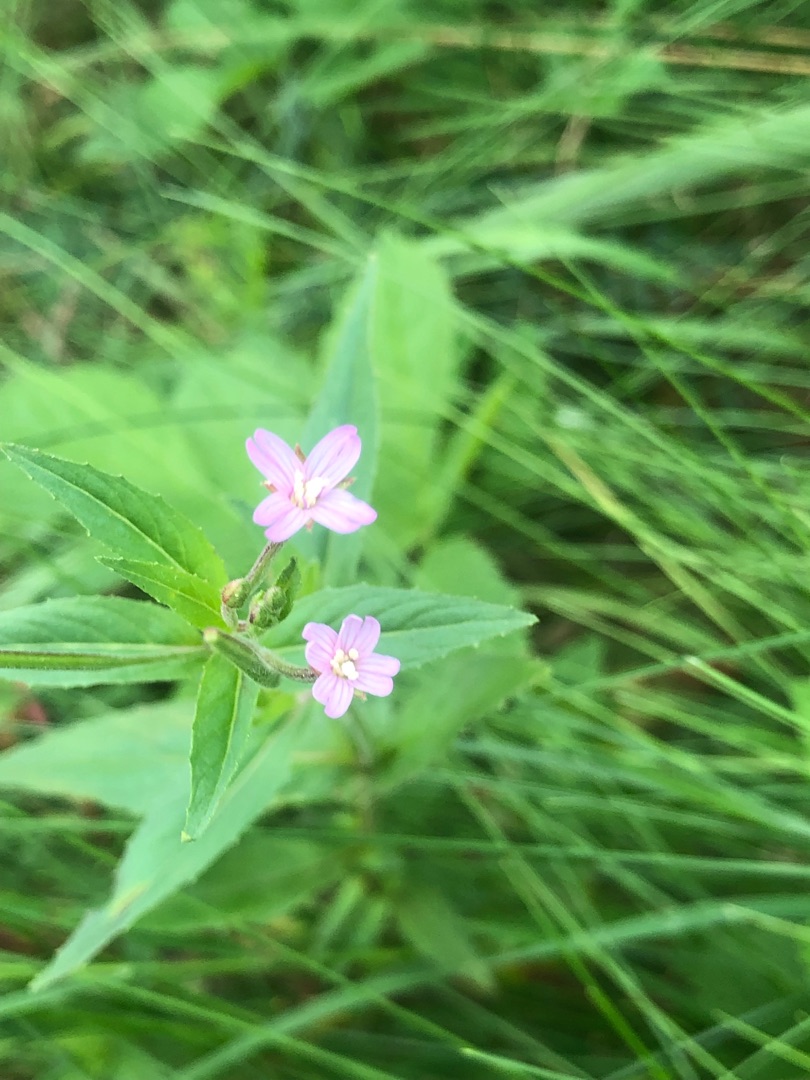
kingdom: Plantae
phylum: Tracheophyta
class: Magnoliopsida
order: Myrtales
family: Onagraceae
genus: Epilobium
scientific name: Epilobium ciliatum
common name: Kirtlet dueurt
